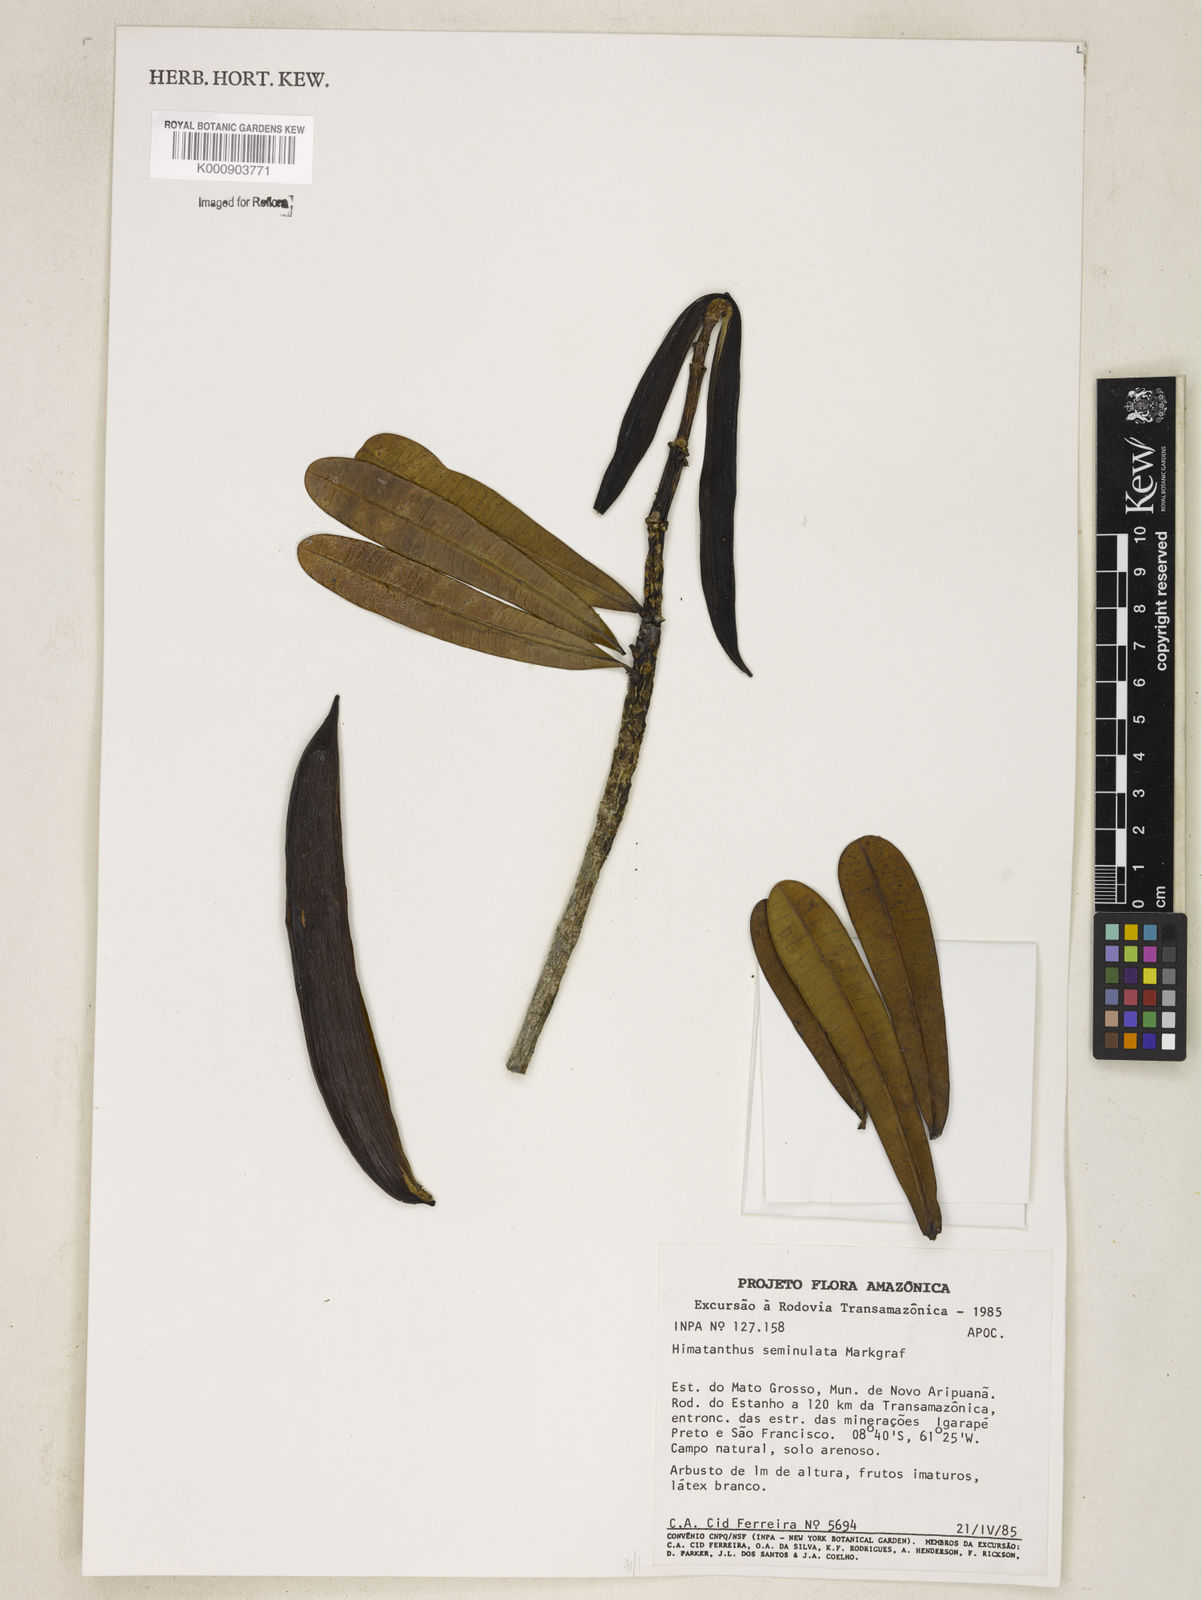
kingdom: Plantae
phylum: Tracheophyta
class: Magnoliopsida
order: Gentianales
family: Apocynaceae
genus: Himatanthus
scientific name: Himatanthus semilunatus
